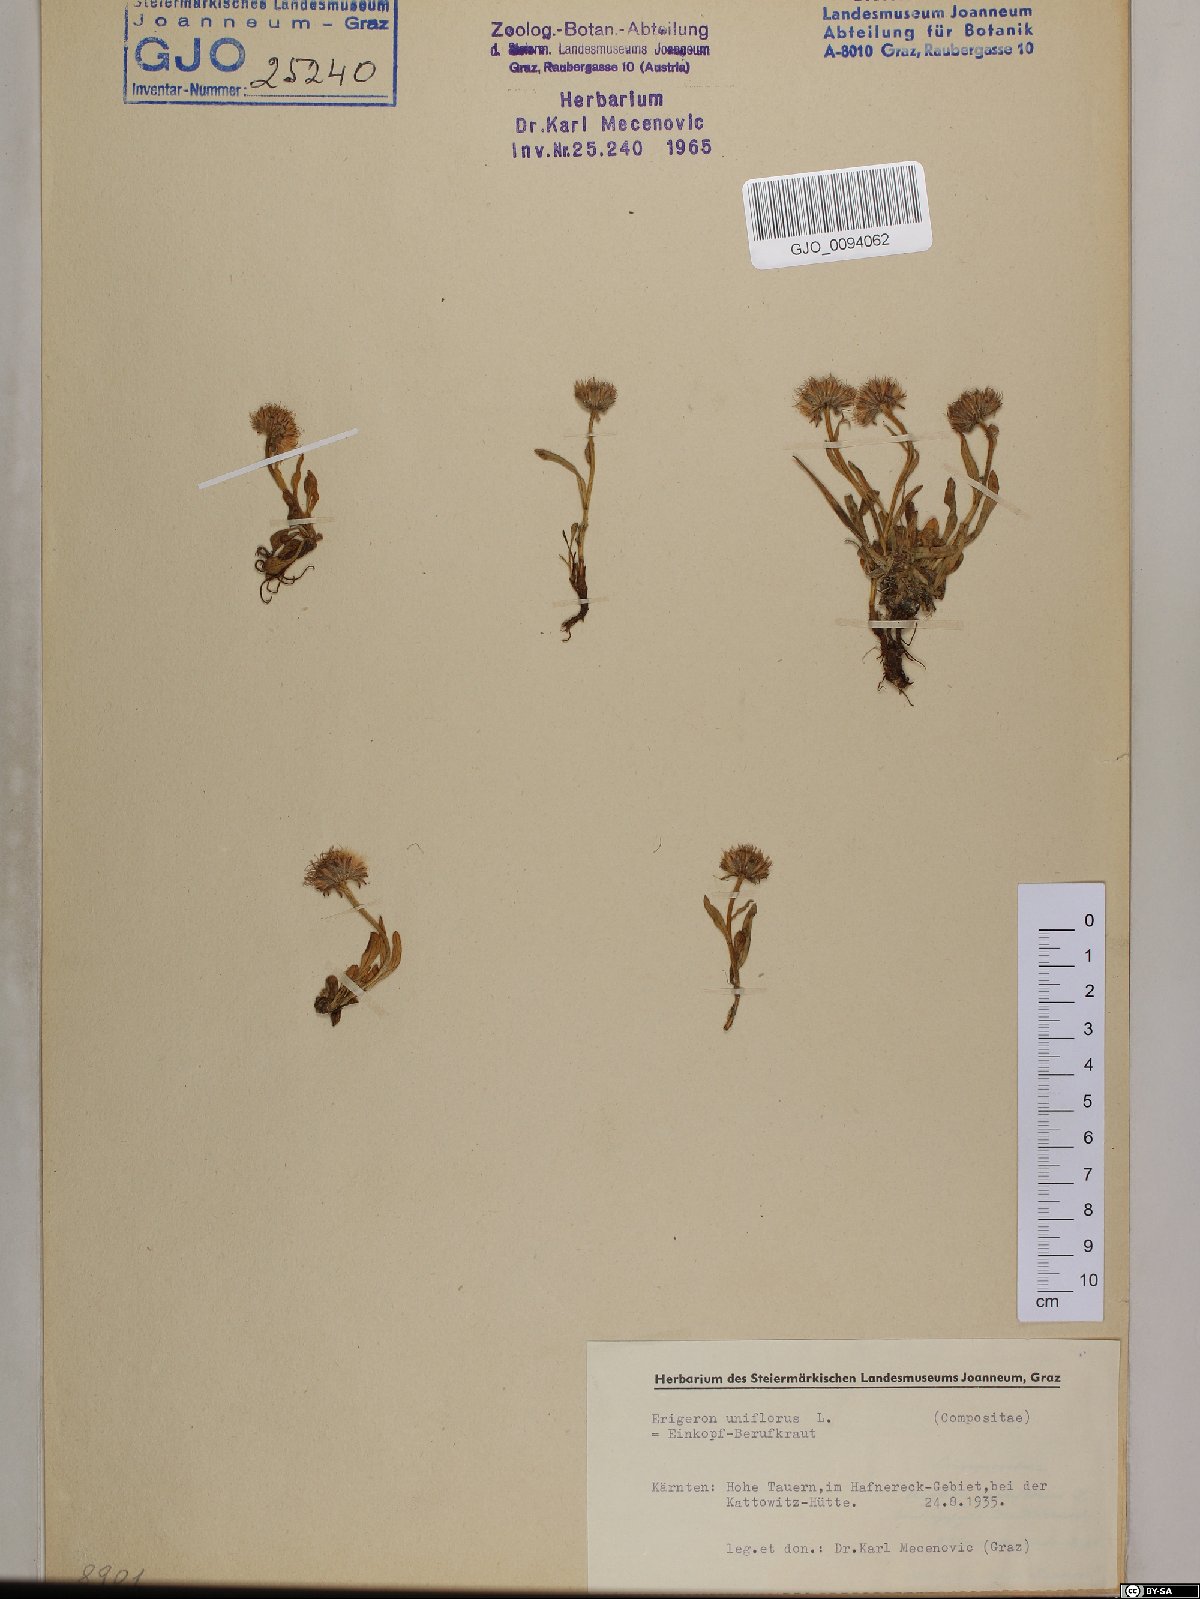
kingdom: Plantae
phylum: Tracheophyta
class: Magnoliopsida
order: Asterales
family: Asteraceae
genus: Erigeron
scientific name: Erigeron uniflorus
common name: Northern daisy
